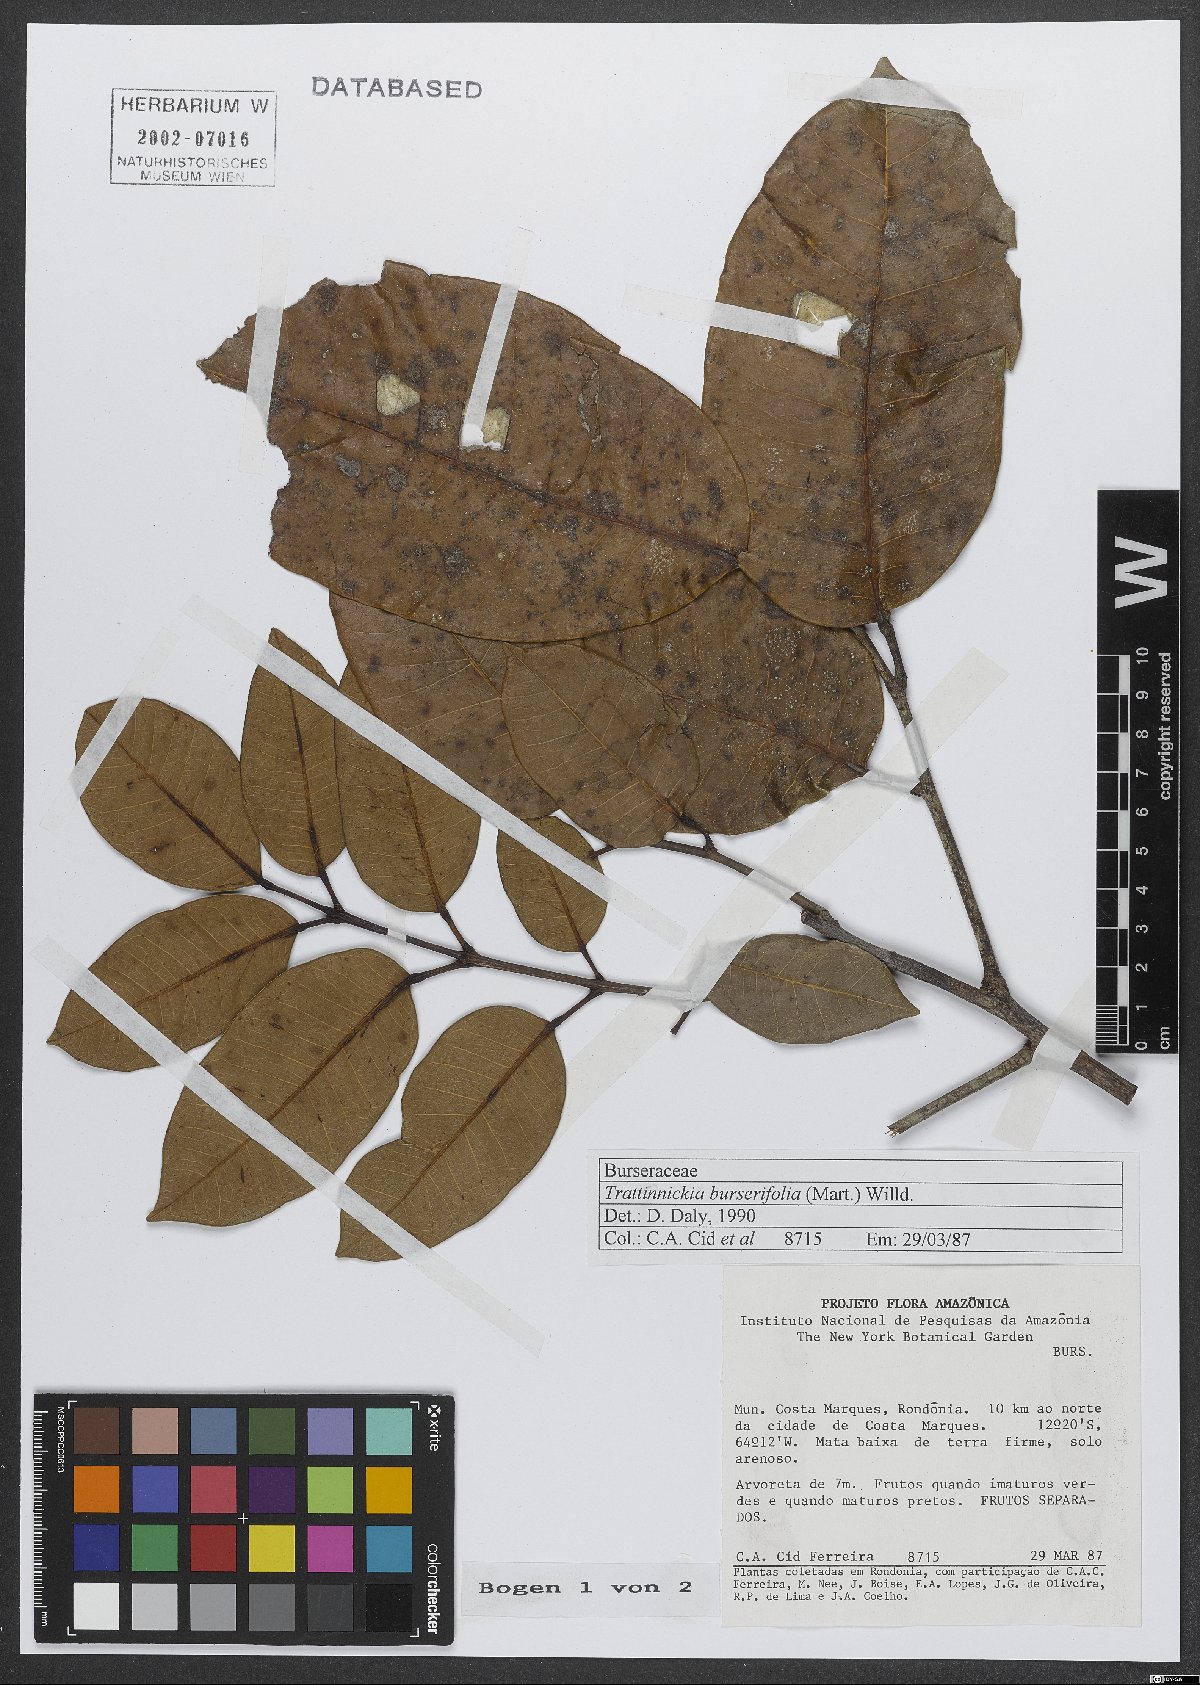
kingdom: Plantae
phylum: Tracheophyta
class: Magnoliopsida
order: Sapindales
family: Burseraceae
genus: Trattinnickia
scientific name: Trattinnickia burserifolia
